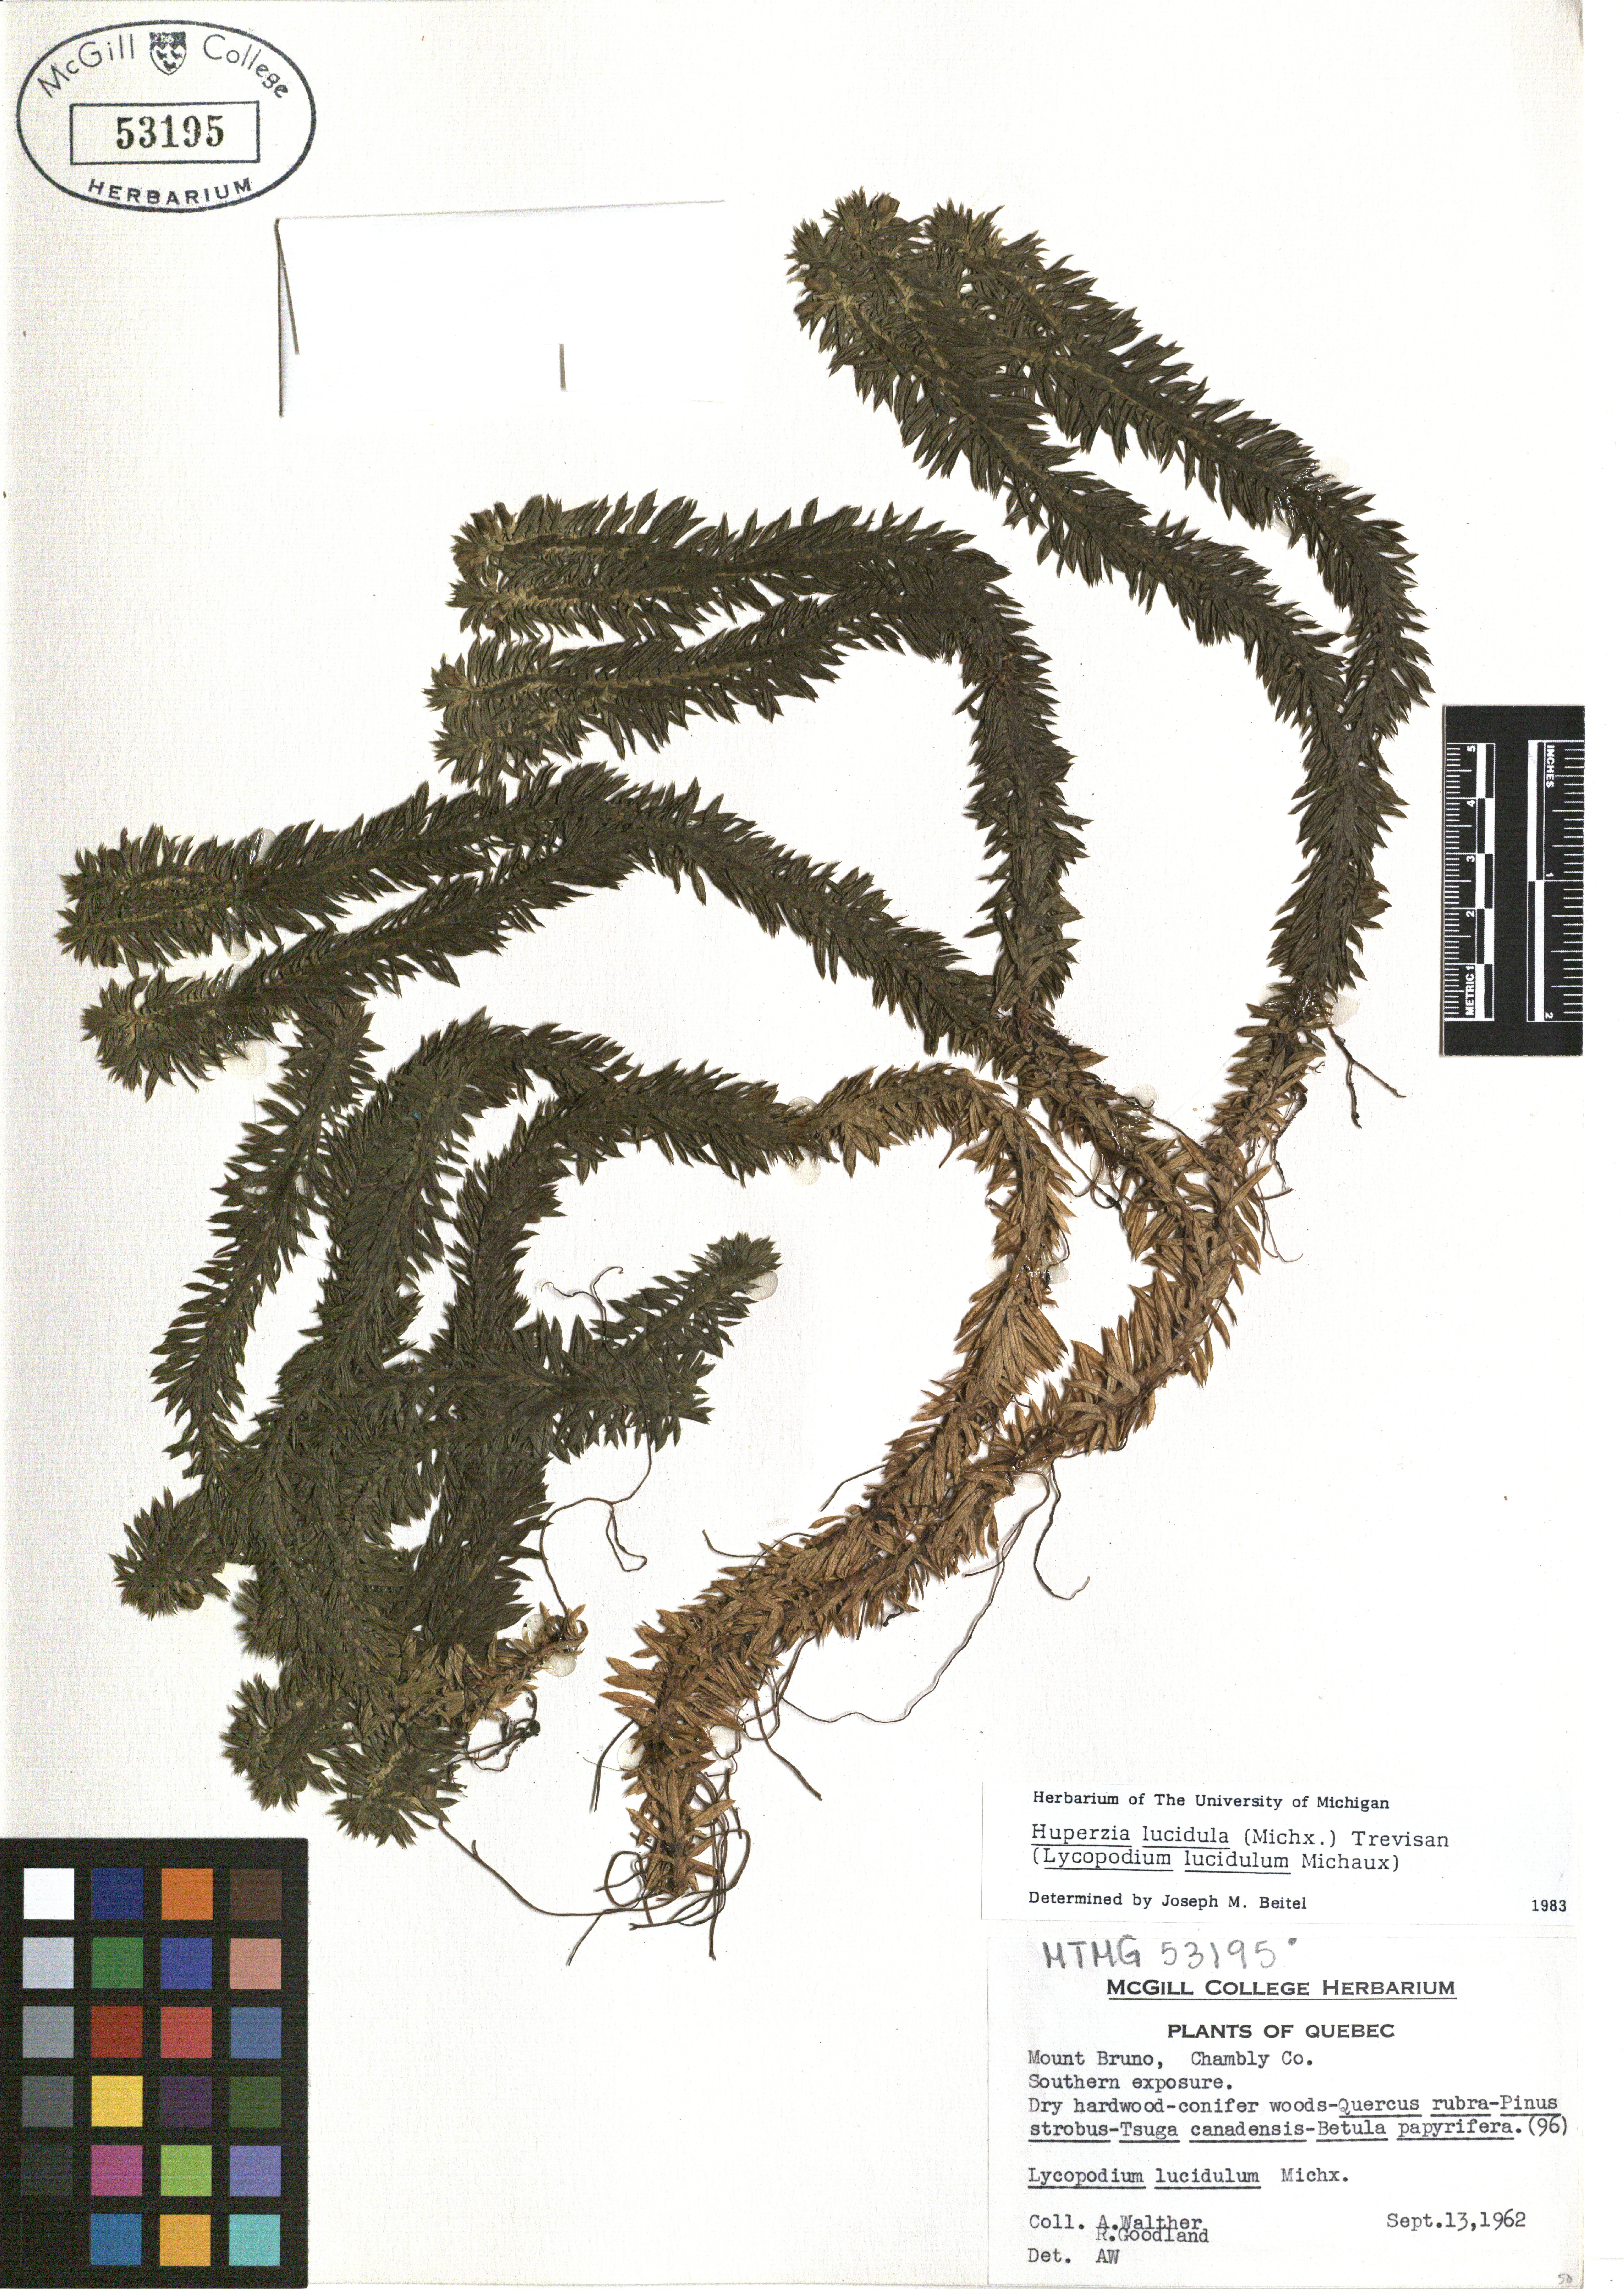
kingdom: Plantae
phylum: Tracheophyta
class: Lycopodiopsida
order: Lycopodiales
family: Lycopodiaceae
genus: Huperzia
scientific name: Huperzia lucidula
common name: Shining clubmoss
